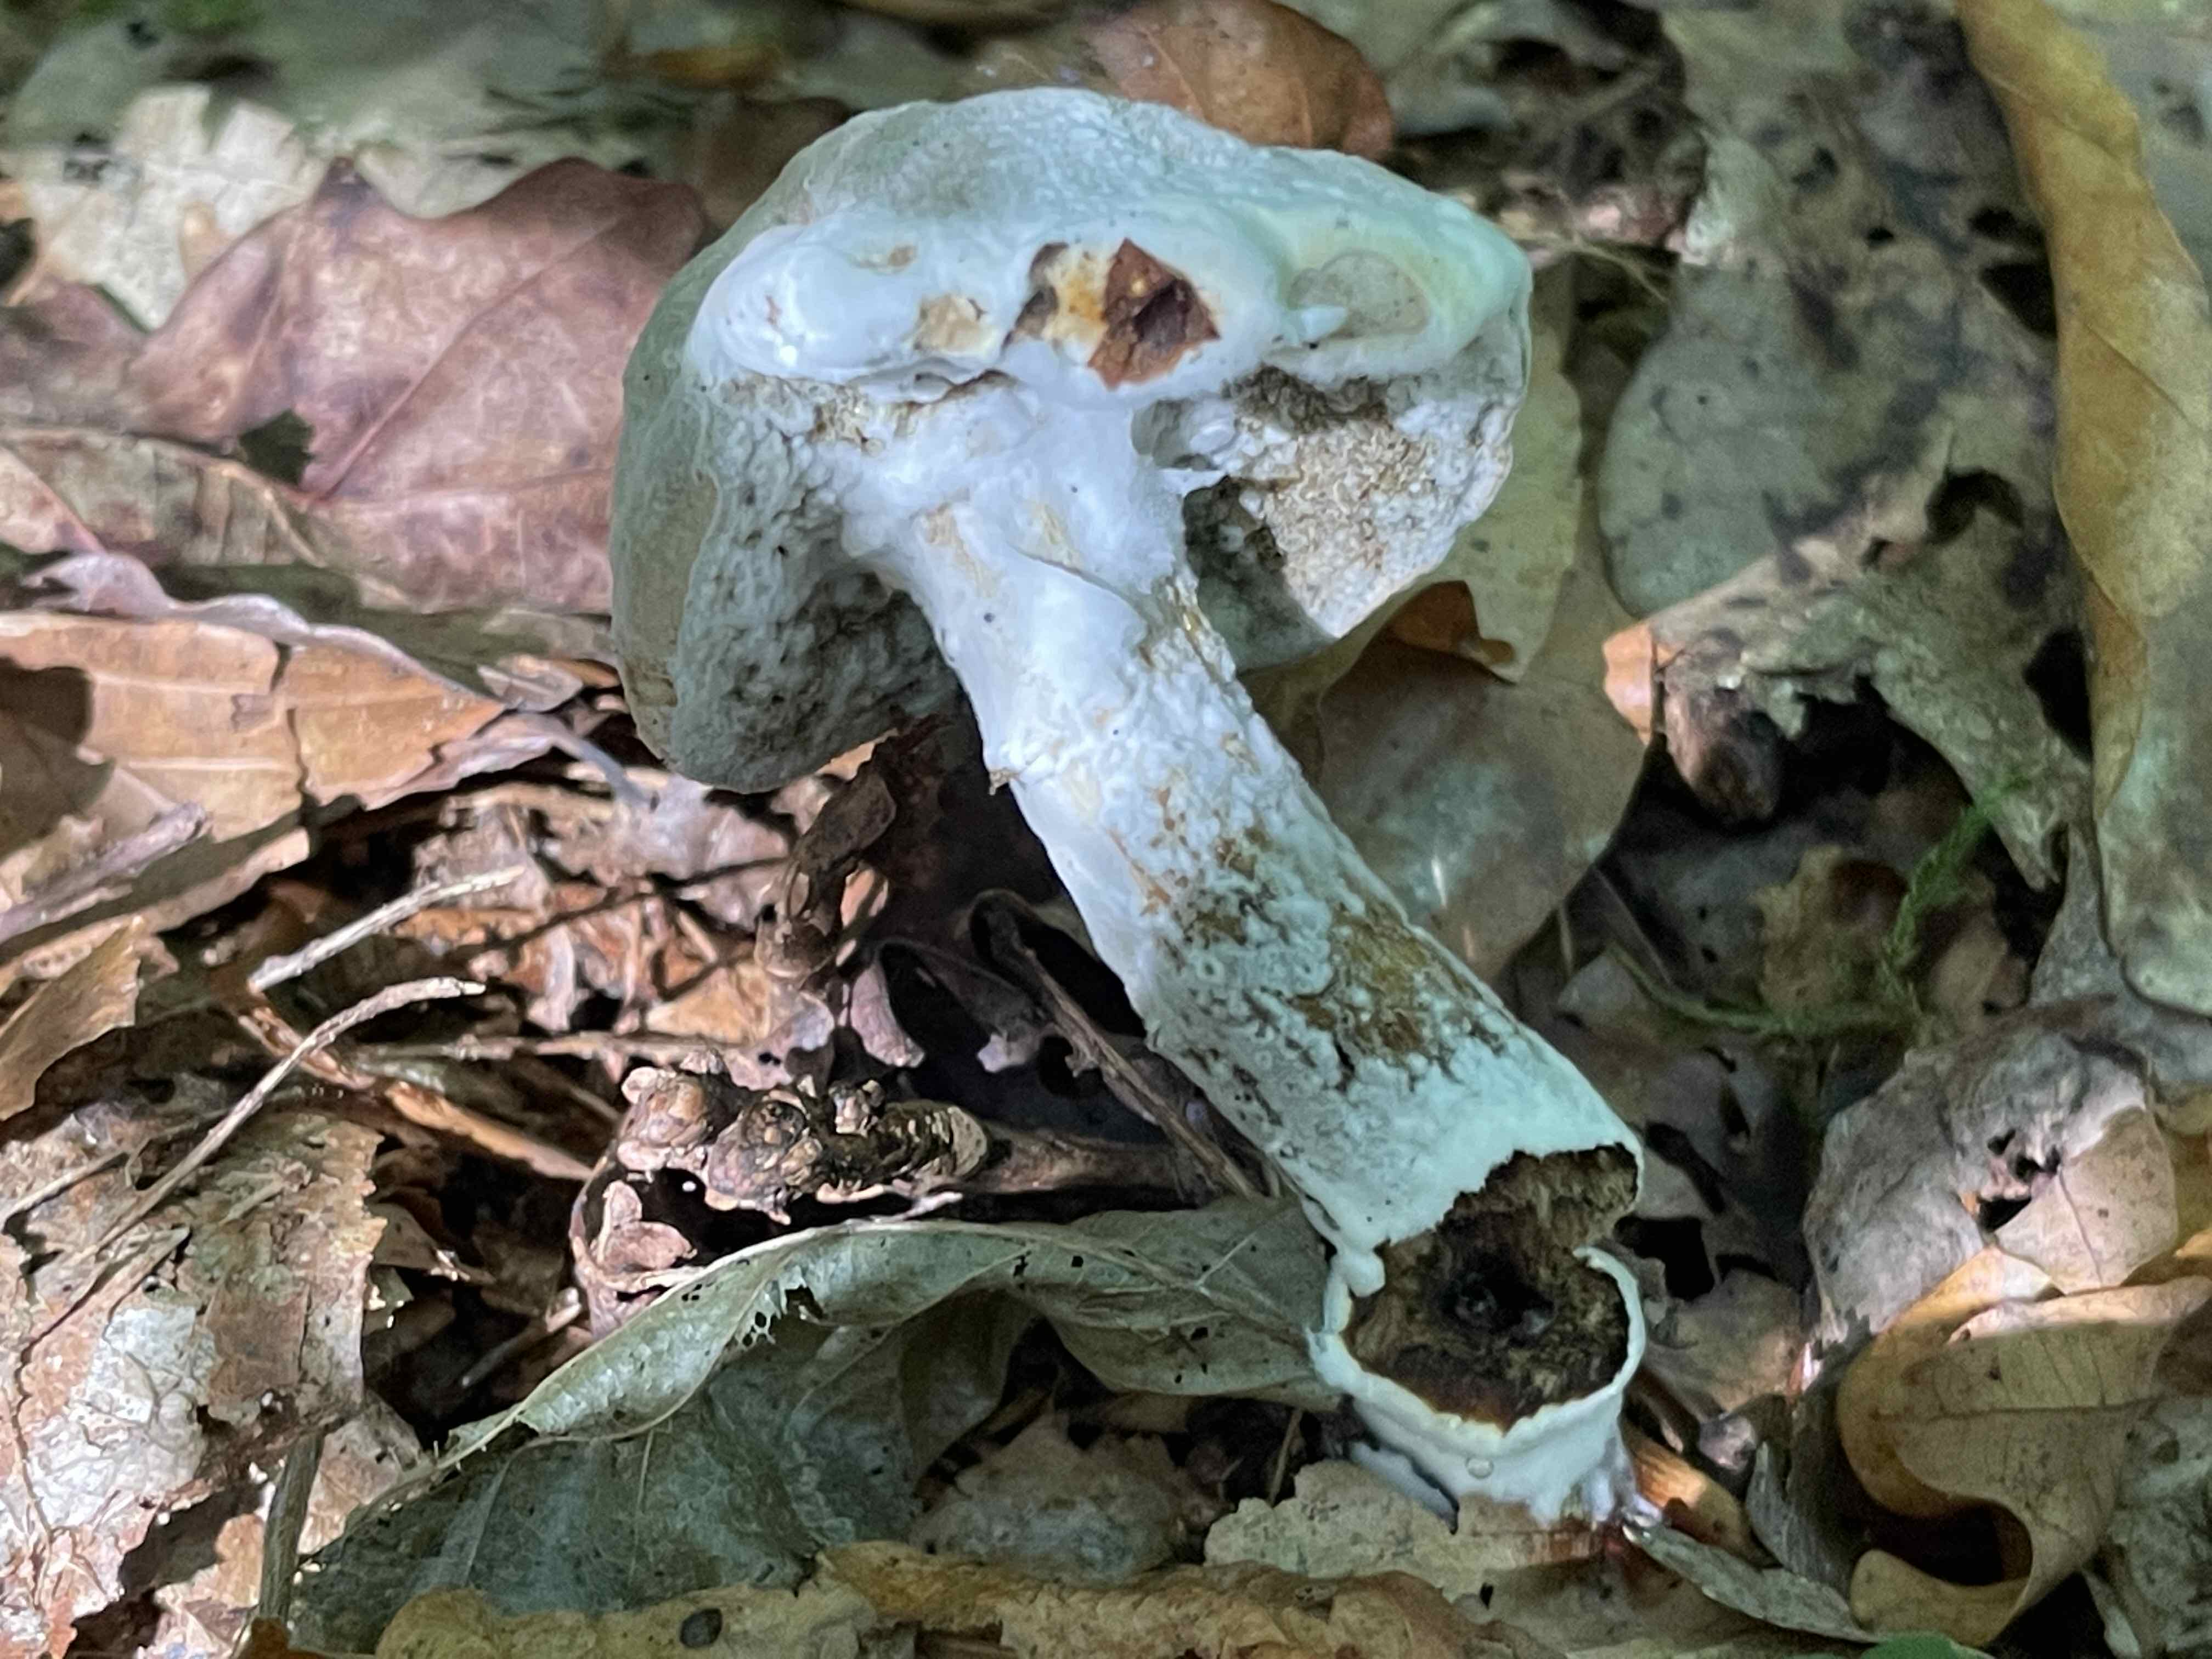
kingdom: Fungi
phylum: Ascomycota
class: Sordariomycetes
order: Hypocreales
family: Hypocreaceae
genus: Hypomyces
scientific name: Hypomyces
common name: snylteskorpe
